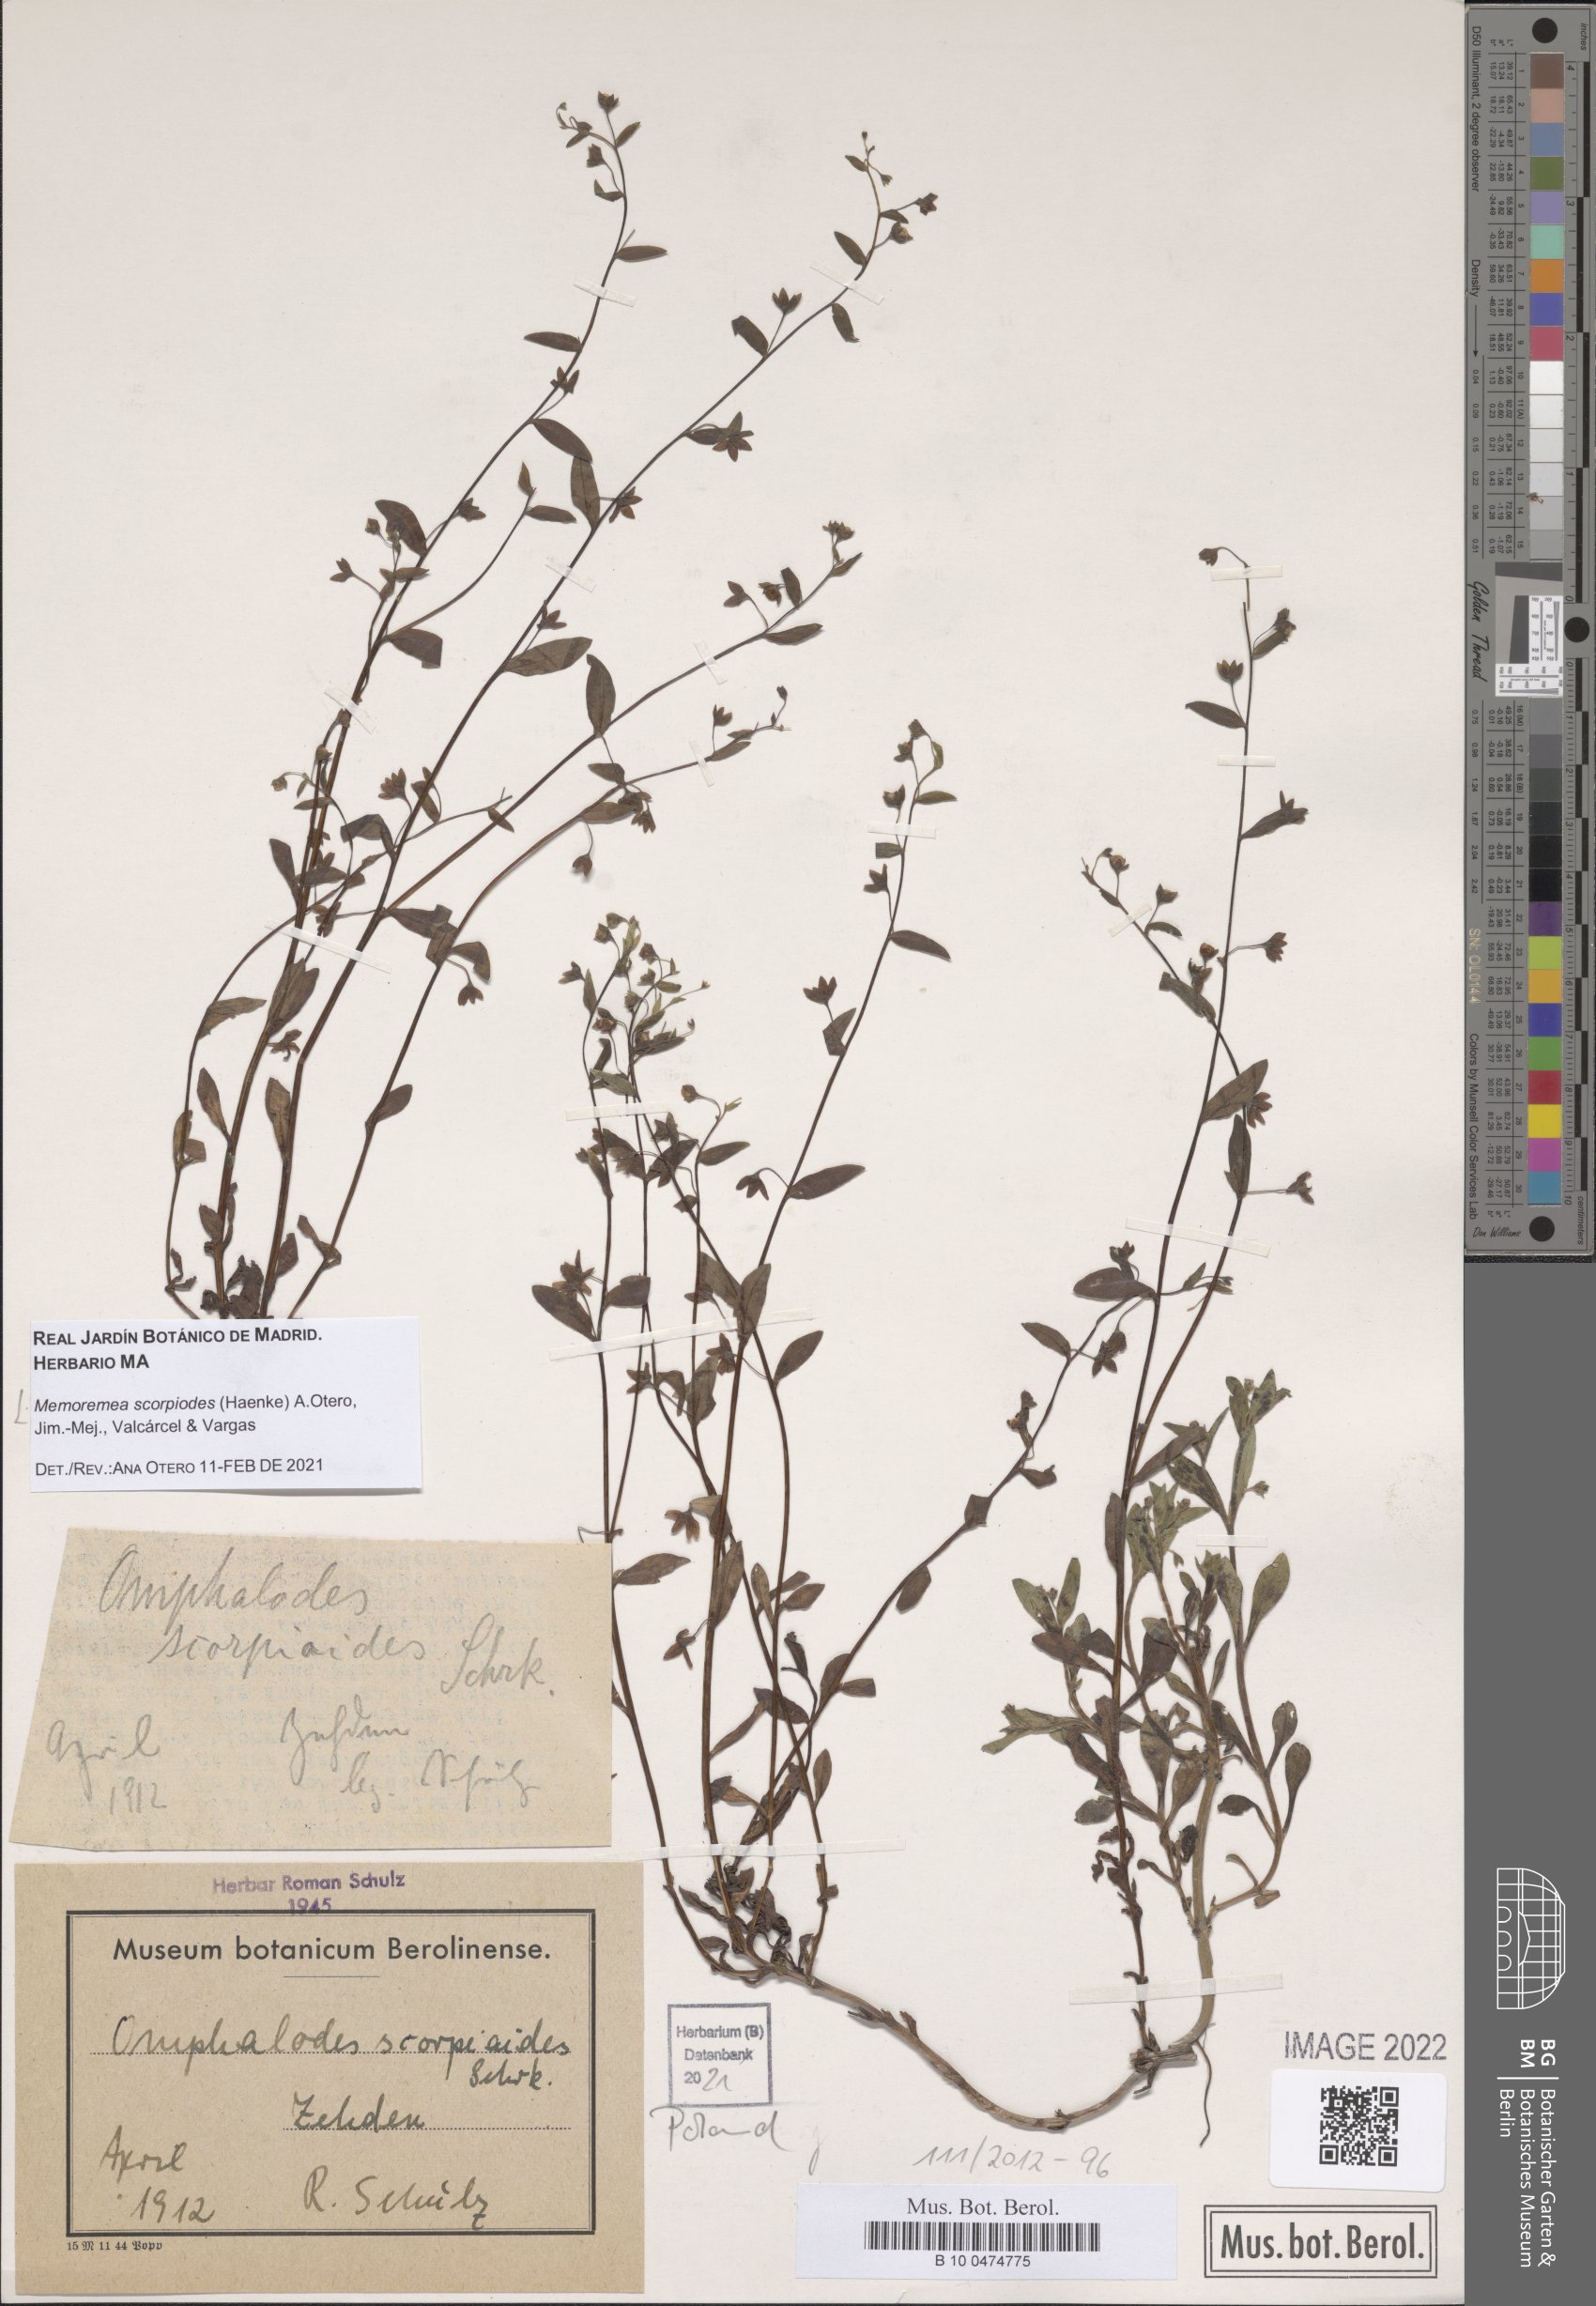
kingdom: Plantae
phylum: Tracheophyta
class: Magnoliopsida
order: Boraginales
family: Boraginaceae
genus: Memoremea
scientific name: Memoremea scorpioides
